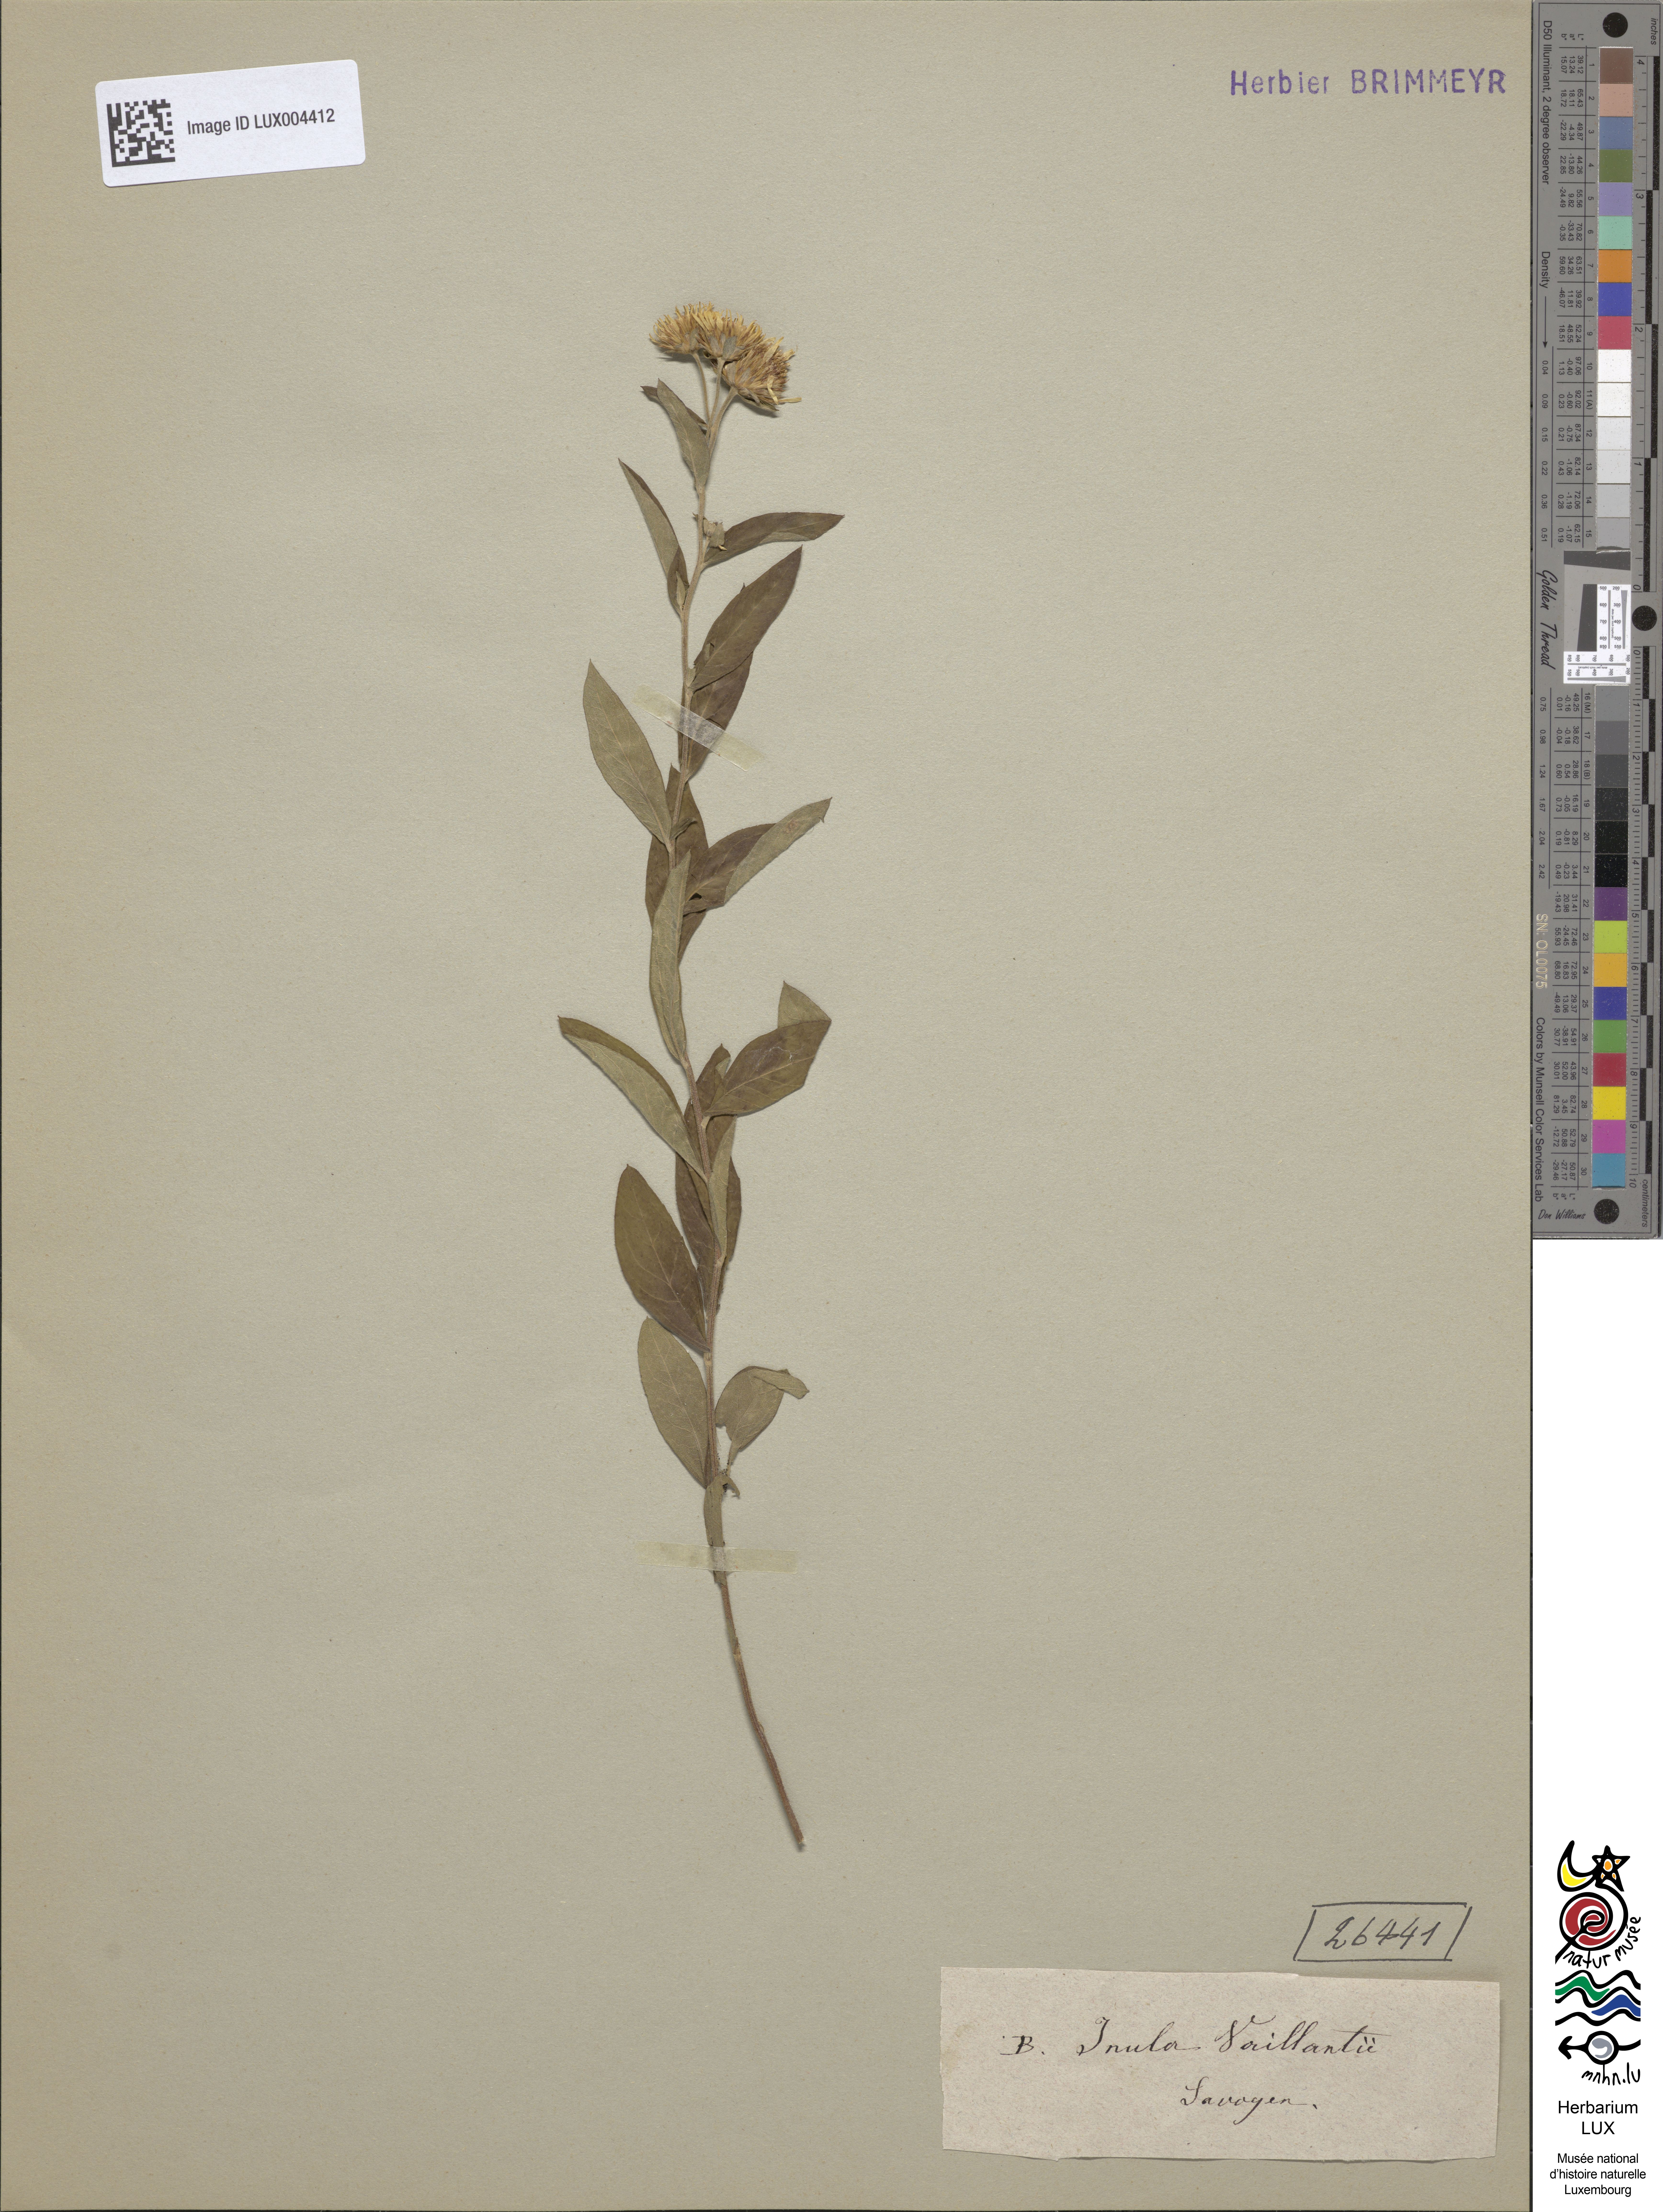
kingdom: Plantae
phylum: Tracheophyta
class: Magnoliopsida
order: Asterales
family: Asteraceae
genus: Pentanema
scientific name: Pentanema helveticum
